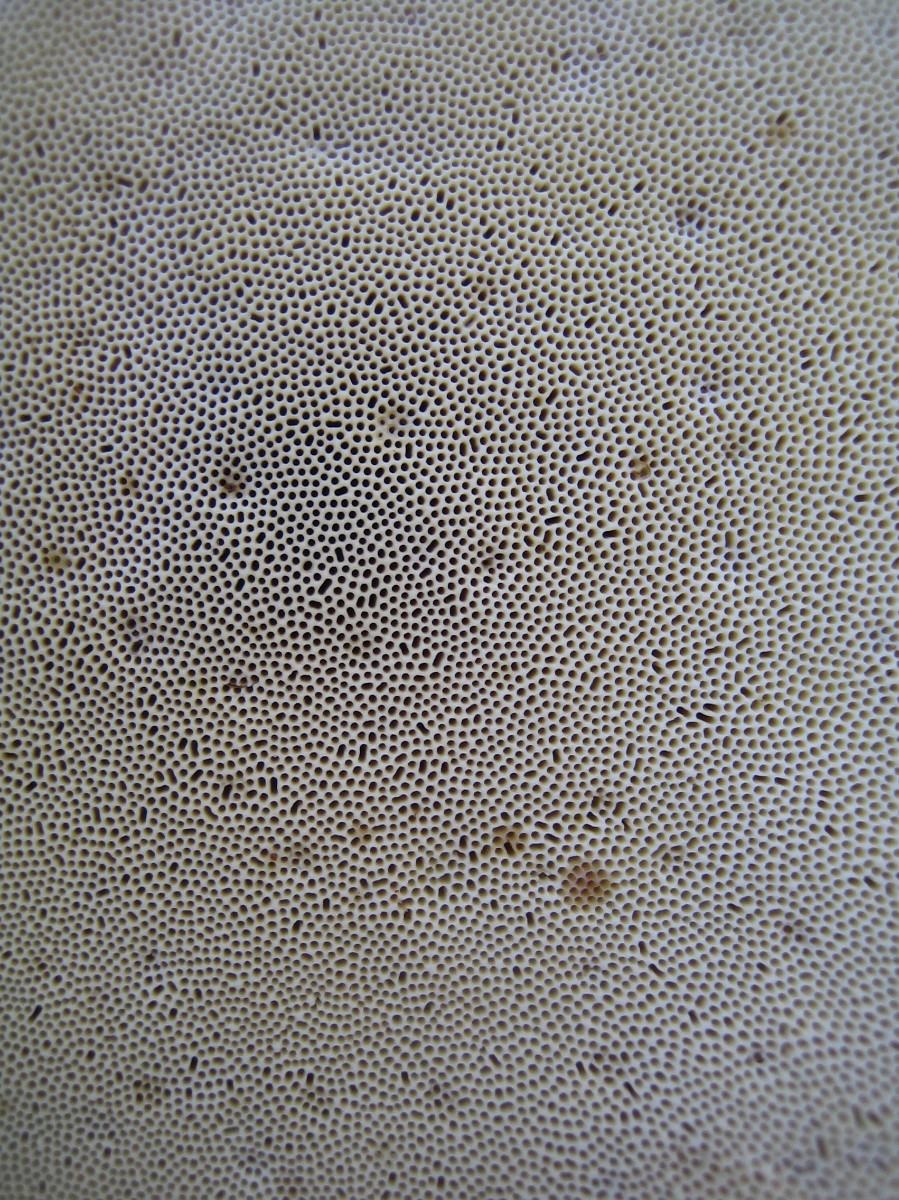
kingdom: Fungi
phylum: Basidiomycota
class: Agaricomycetes
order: Polyporales
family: Fomitopsidaceae
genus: Fomitopsis
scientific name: Fomitopsis pinicola
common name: randbæltet hovporesvamp
